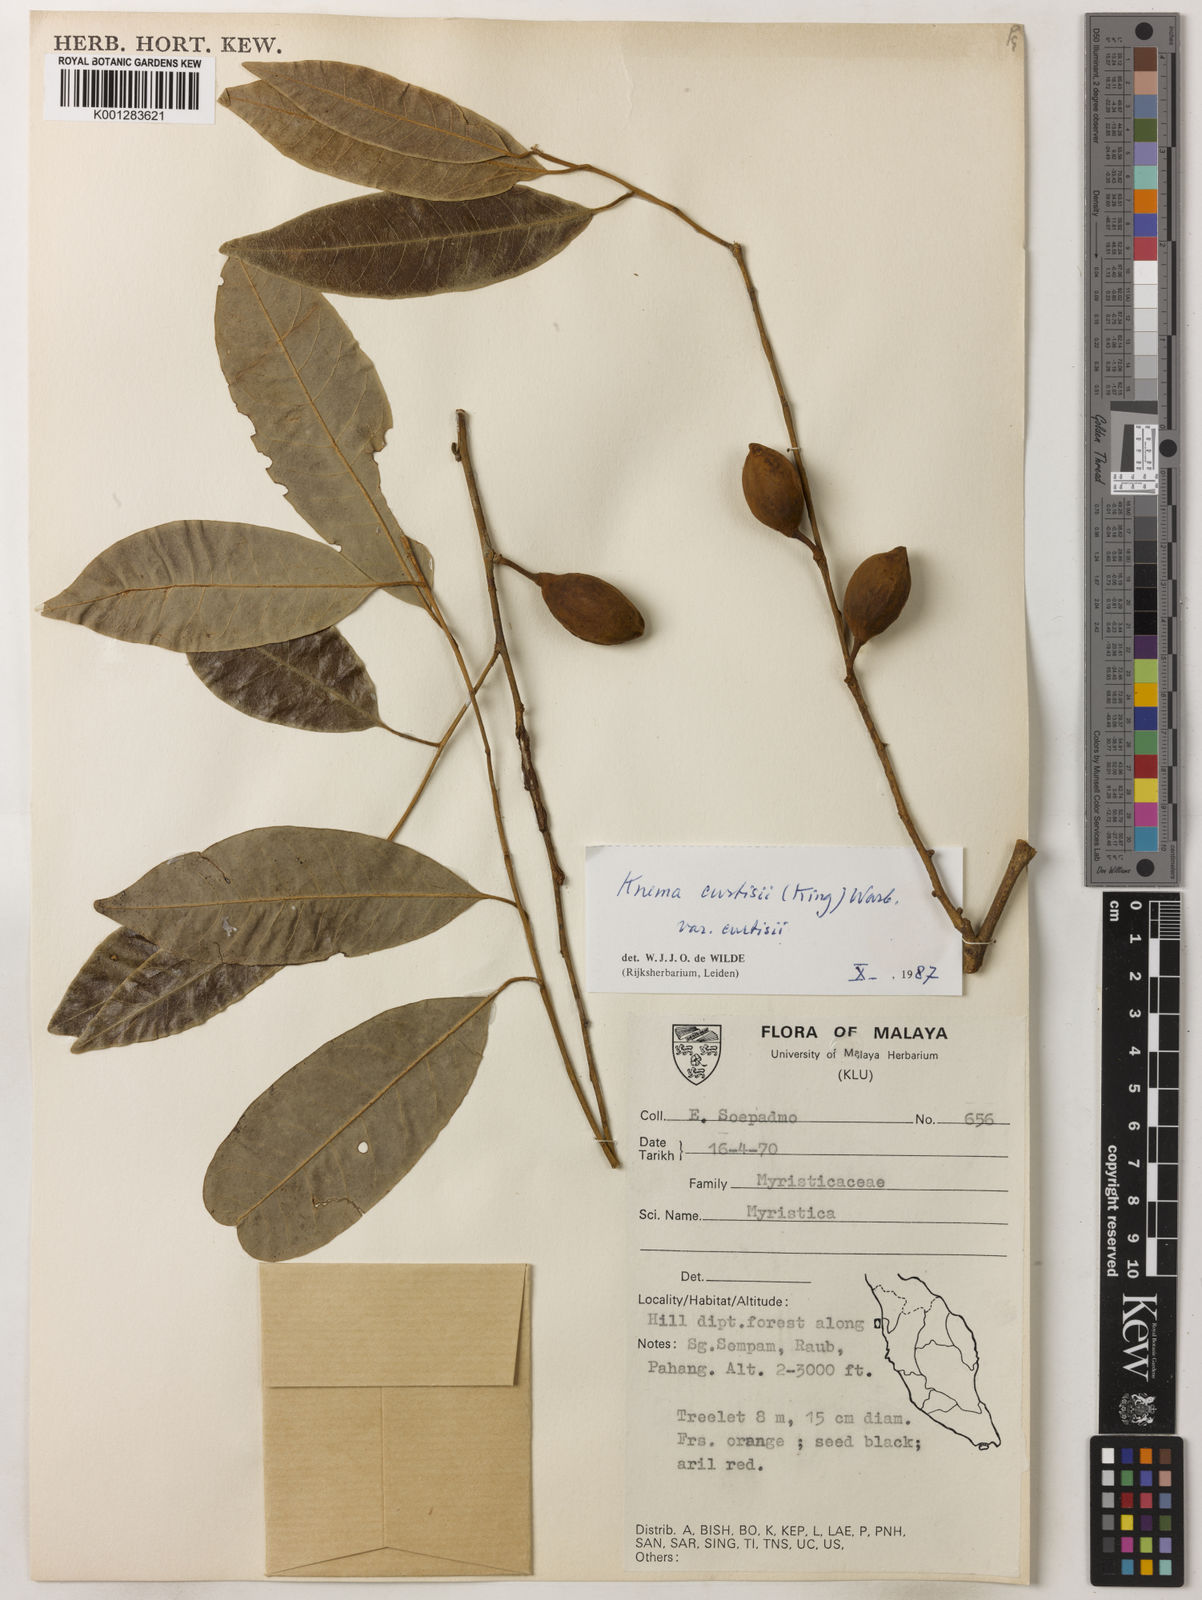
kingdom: Plantae
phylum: Tracheophyta
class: Magnoliopsida
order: Magnoliales
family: Myristicaceae
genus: Knema
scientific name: Knema curtisii
